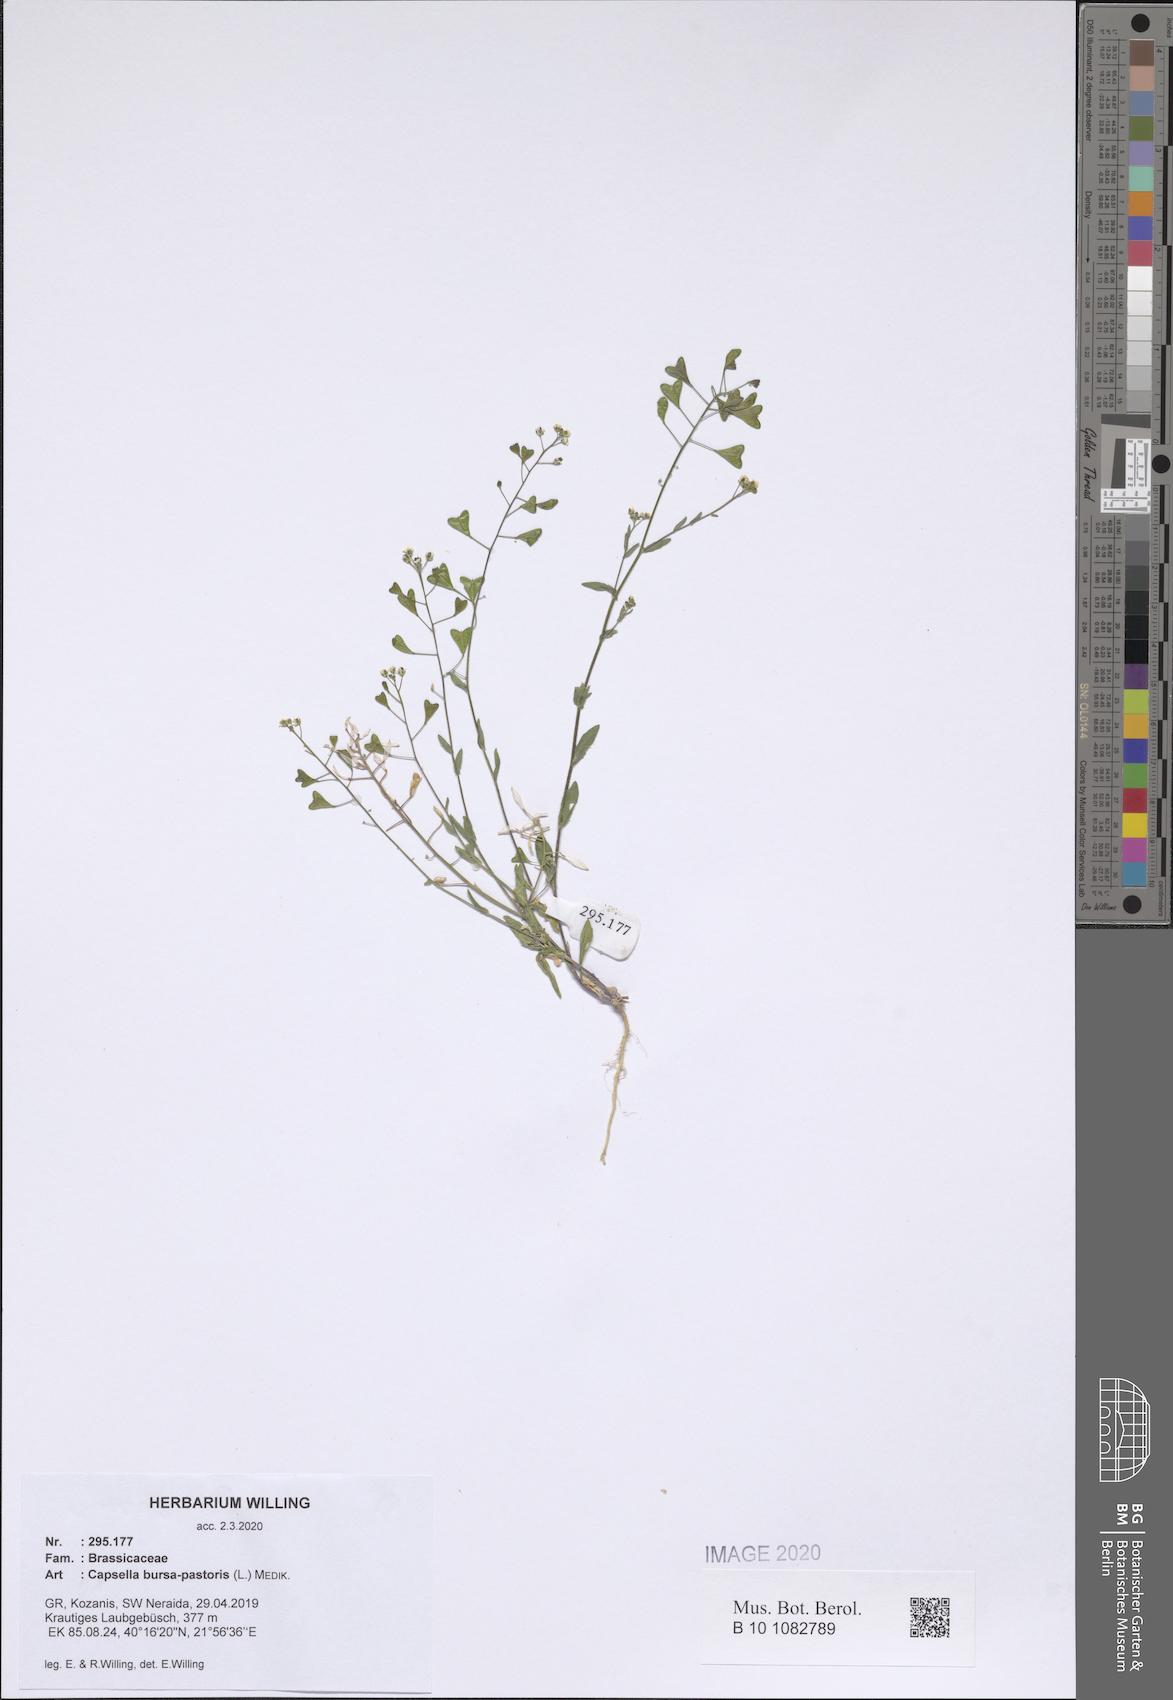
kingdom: Plantae
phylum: Tracheophyta
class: Magnoliopsida
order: Brassicales
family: Brassicaceae
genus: Capsella
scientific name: Capsella bursa-pastoris
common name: Shepherd's purse
